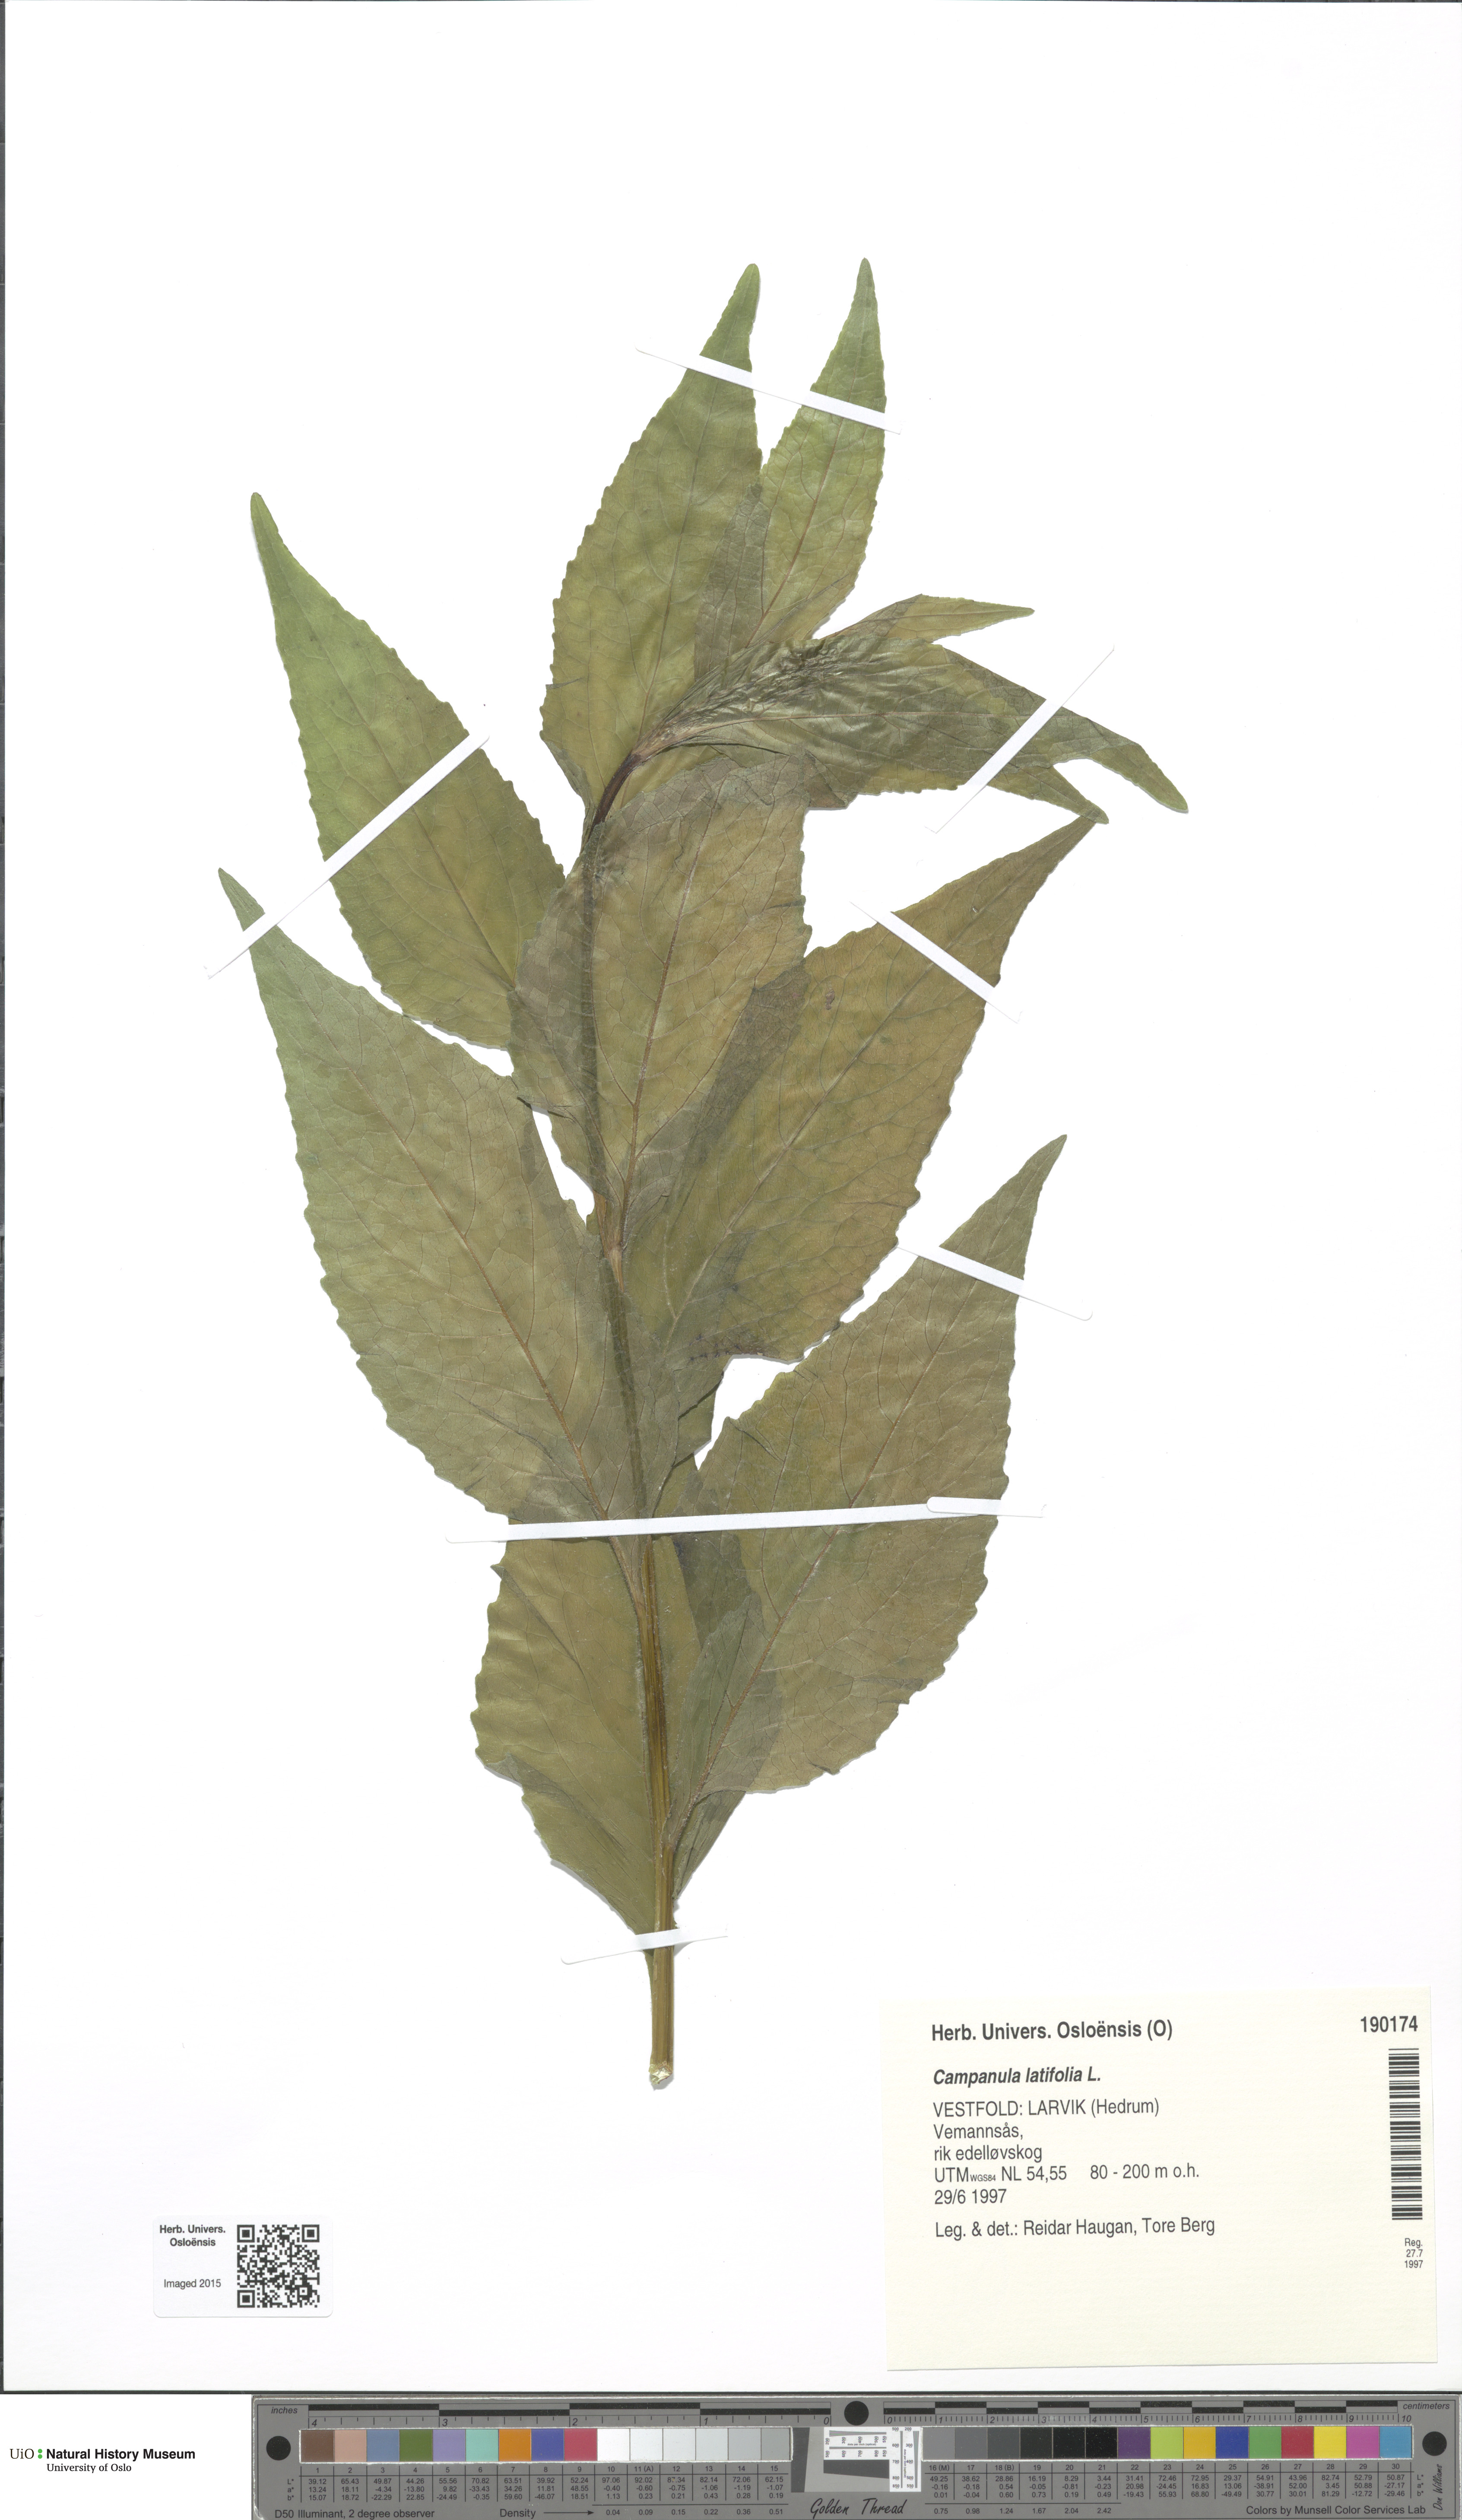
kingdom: Plantae
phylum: Tracheophyta
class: Magnoliopsida
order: Asterales
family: Campanulaceae
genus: Campanula
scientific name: Campanula latifolia
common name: Giant bellflower
